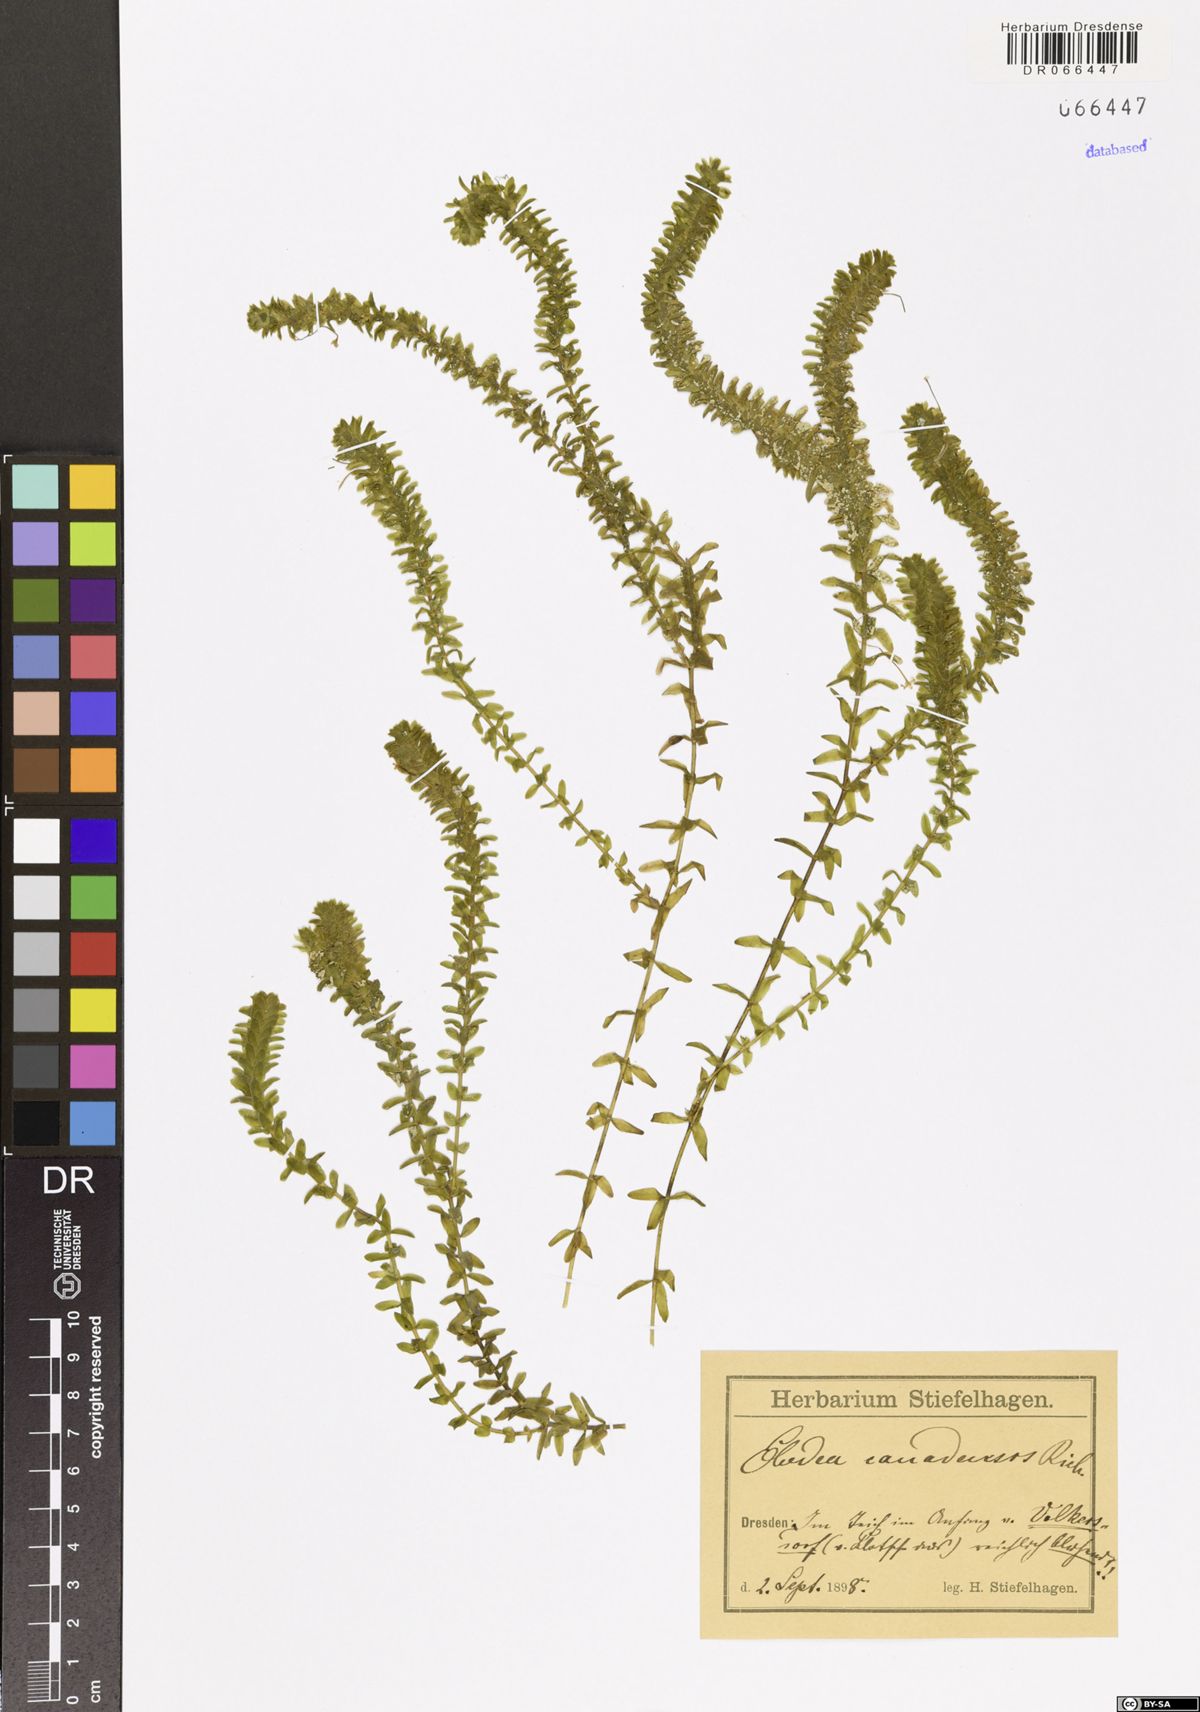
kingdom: Plantae
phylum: Tracheophyta
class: Liliopsida
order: Alismatales
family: Hydrocharitaceae
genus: Elodea
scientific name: Elodea canadensis
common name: Canadian waterweed
